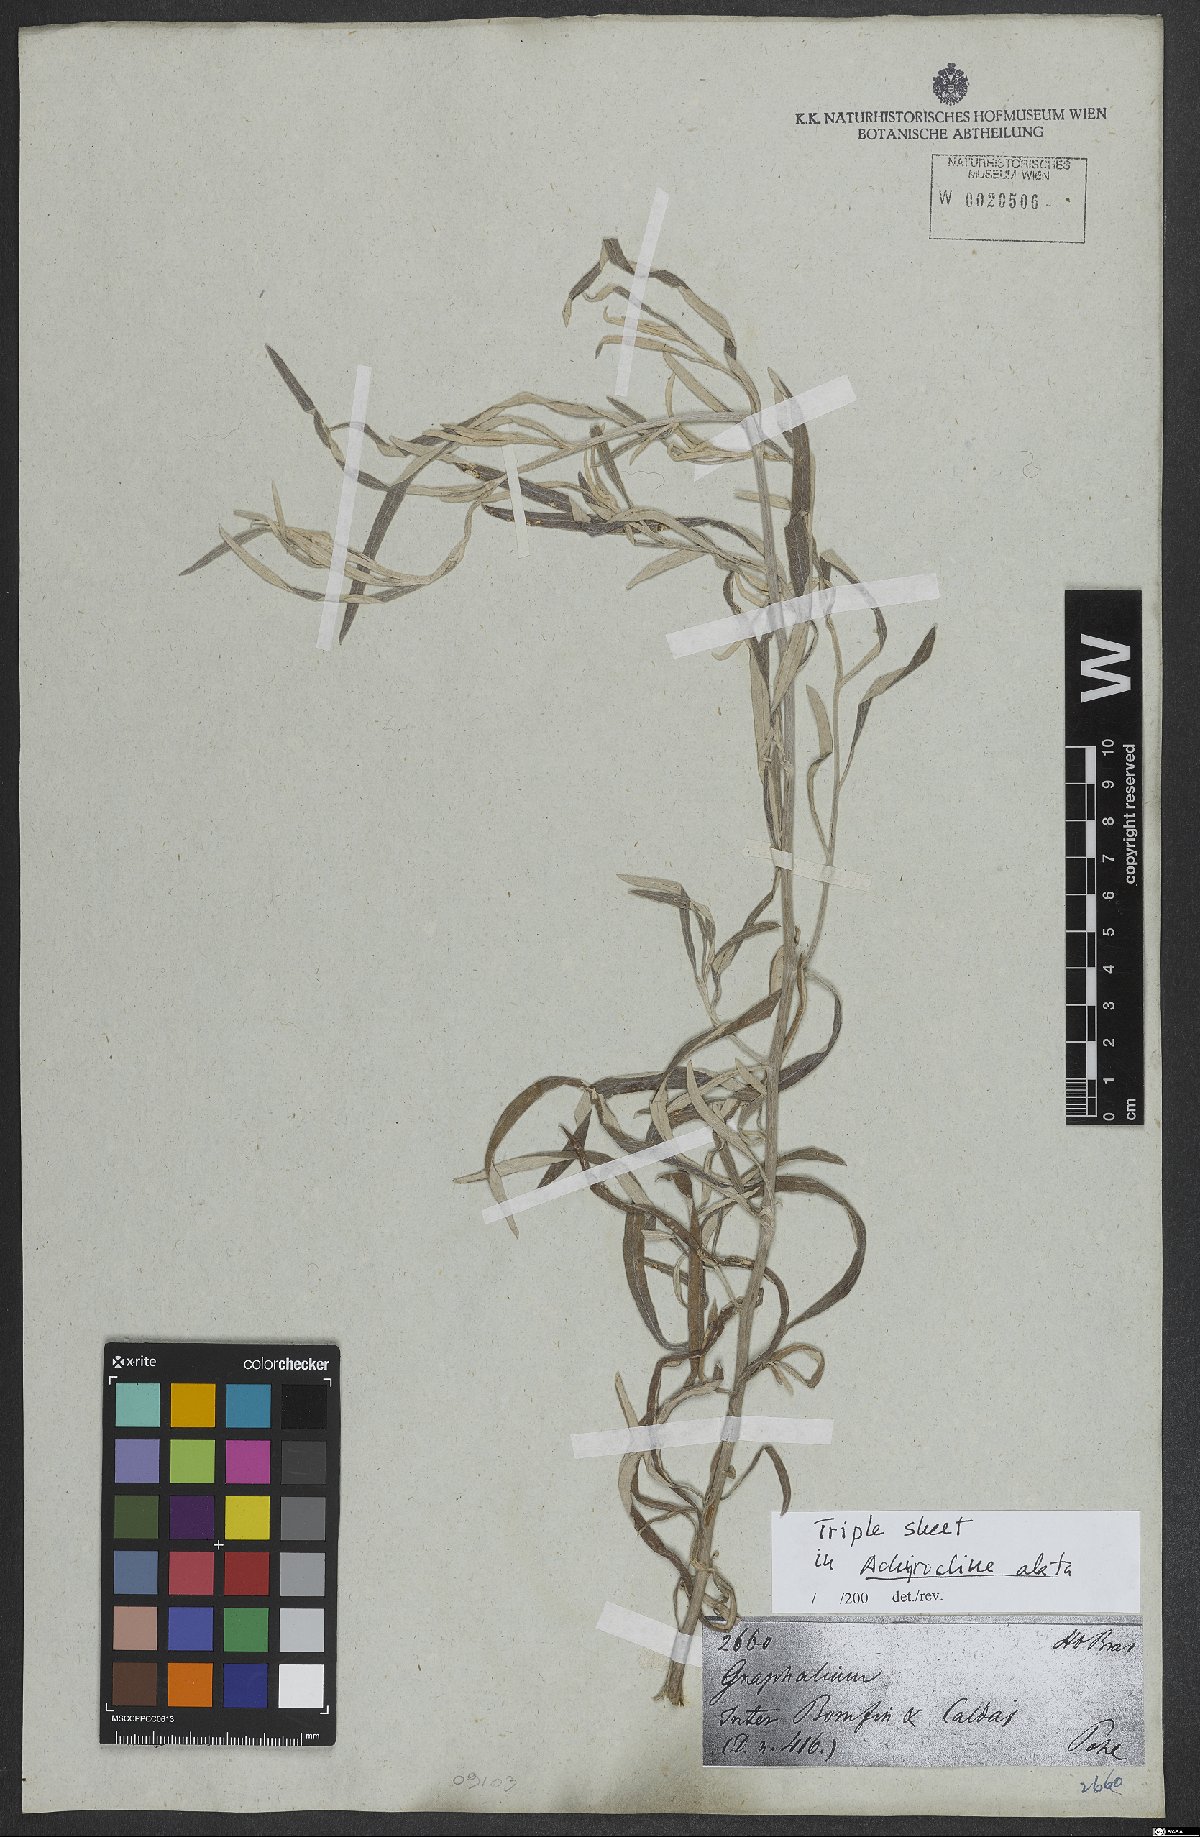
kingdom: Plantae
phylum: Tracheophyta
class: Magnoliopsida
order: Asterales
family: Asteraceae
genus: Achyrocline
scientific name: Achyrocline alata
